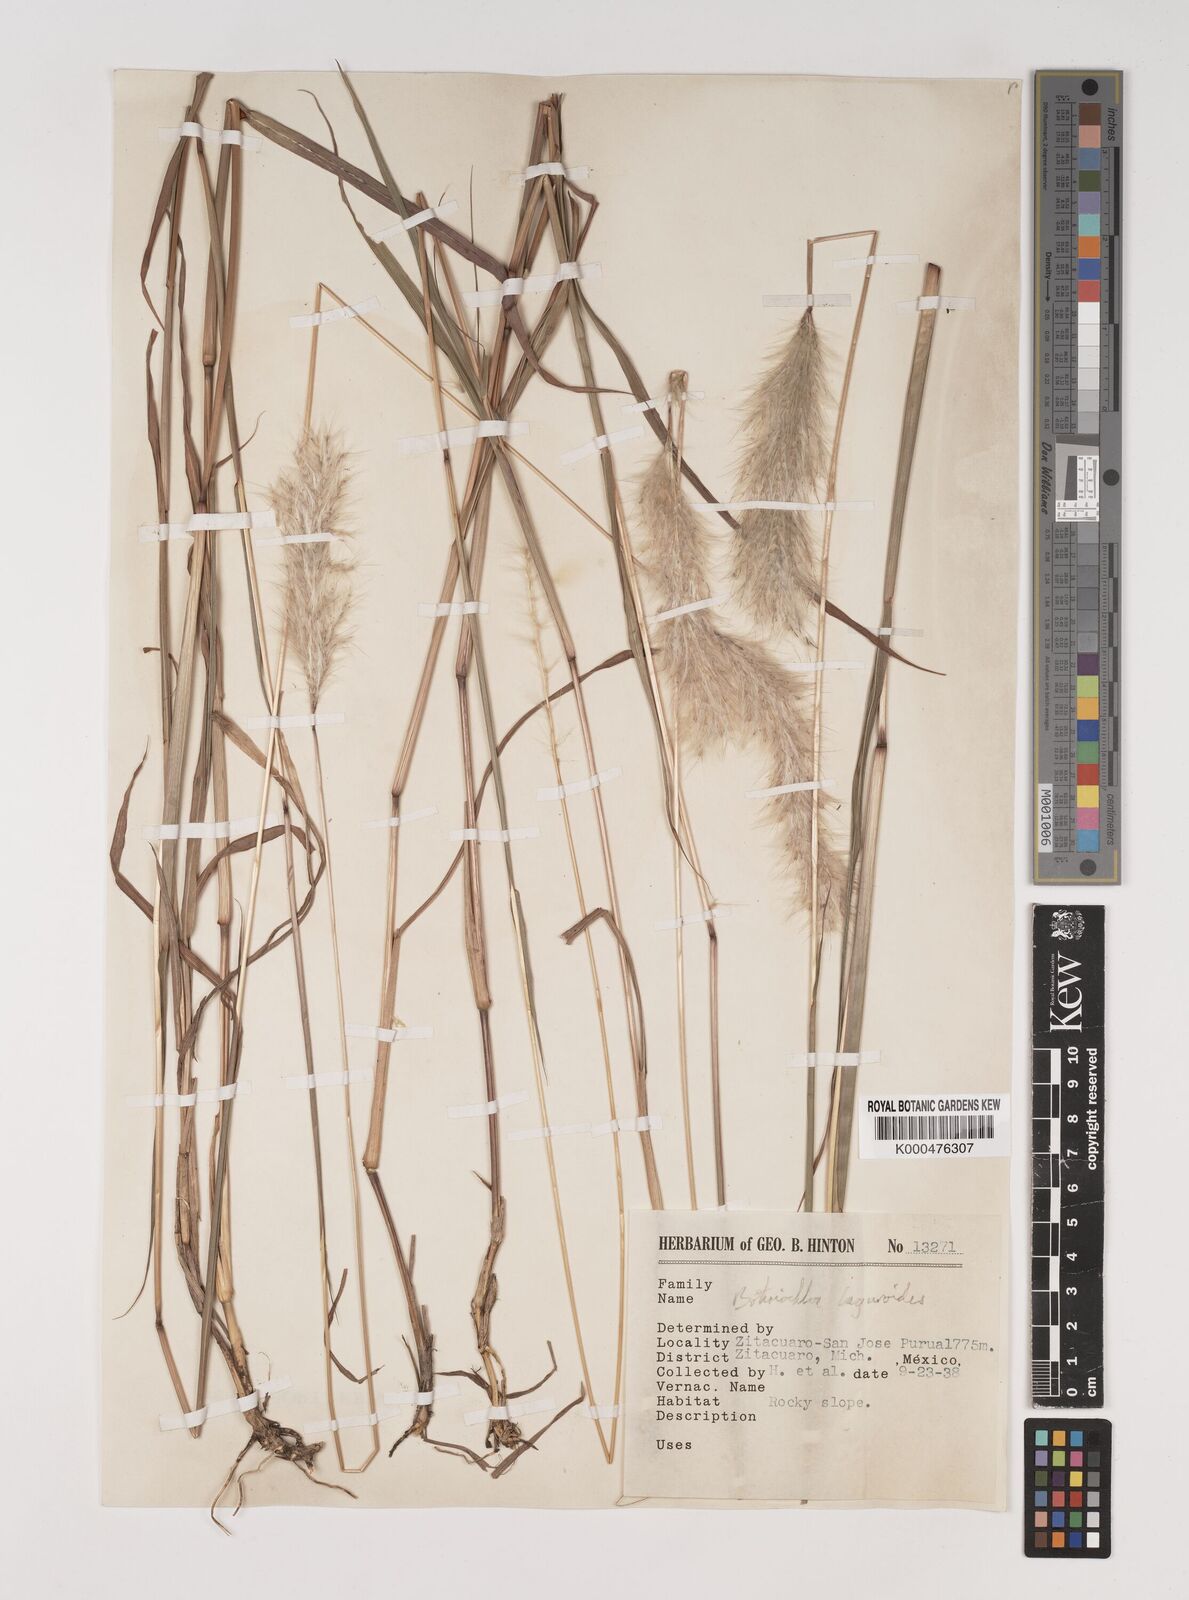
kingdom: Plantae
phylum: Tracheophyta
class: Liliopsida
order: Poales
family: Poaceae
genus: Bothriochloa
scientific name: Bothriochloa laguroides
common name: Silver bluestem
